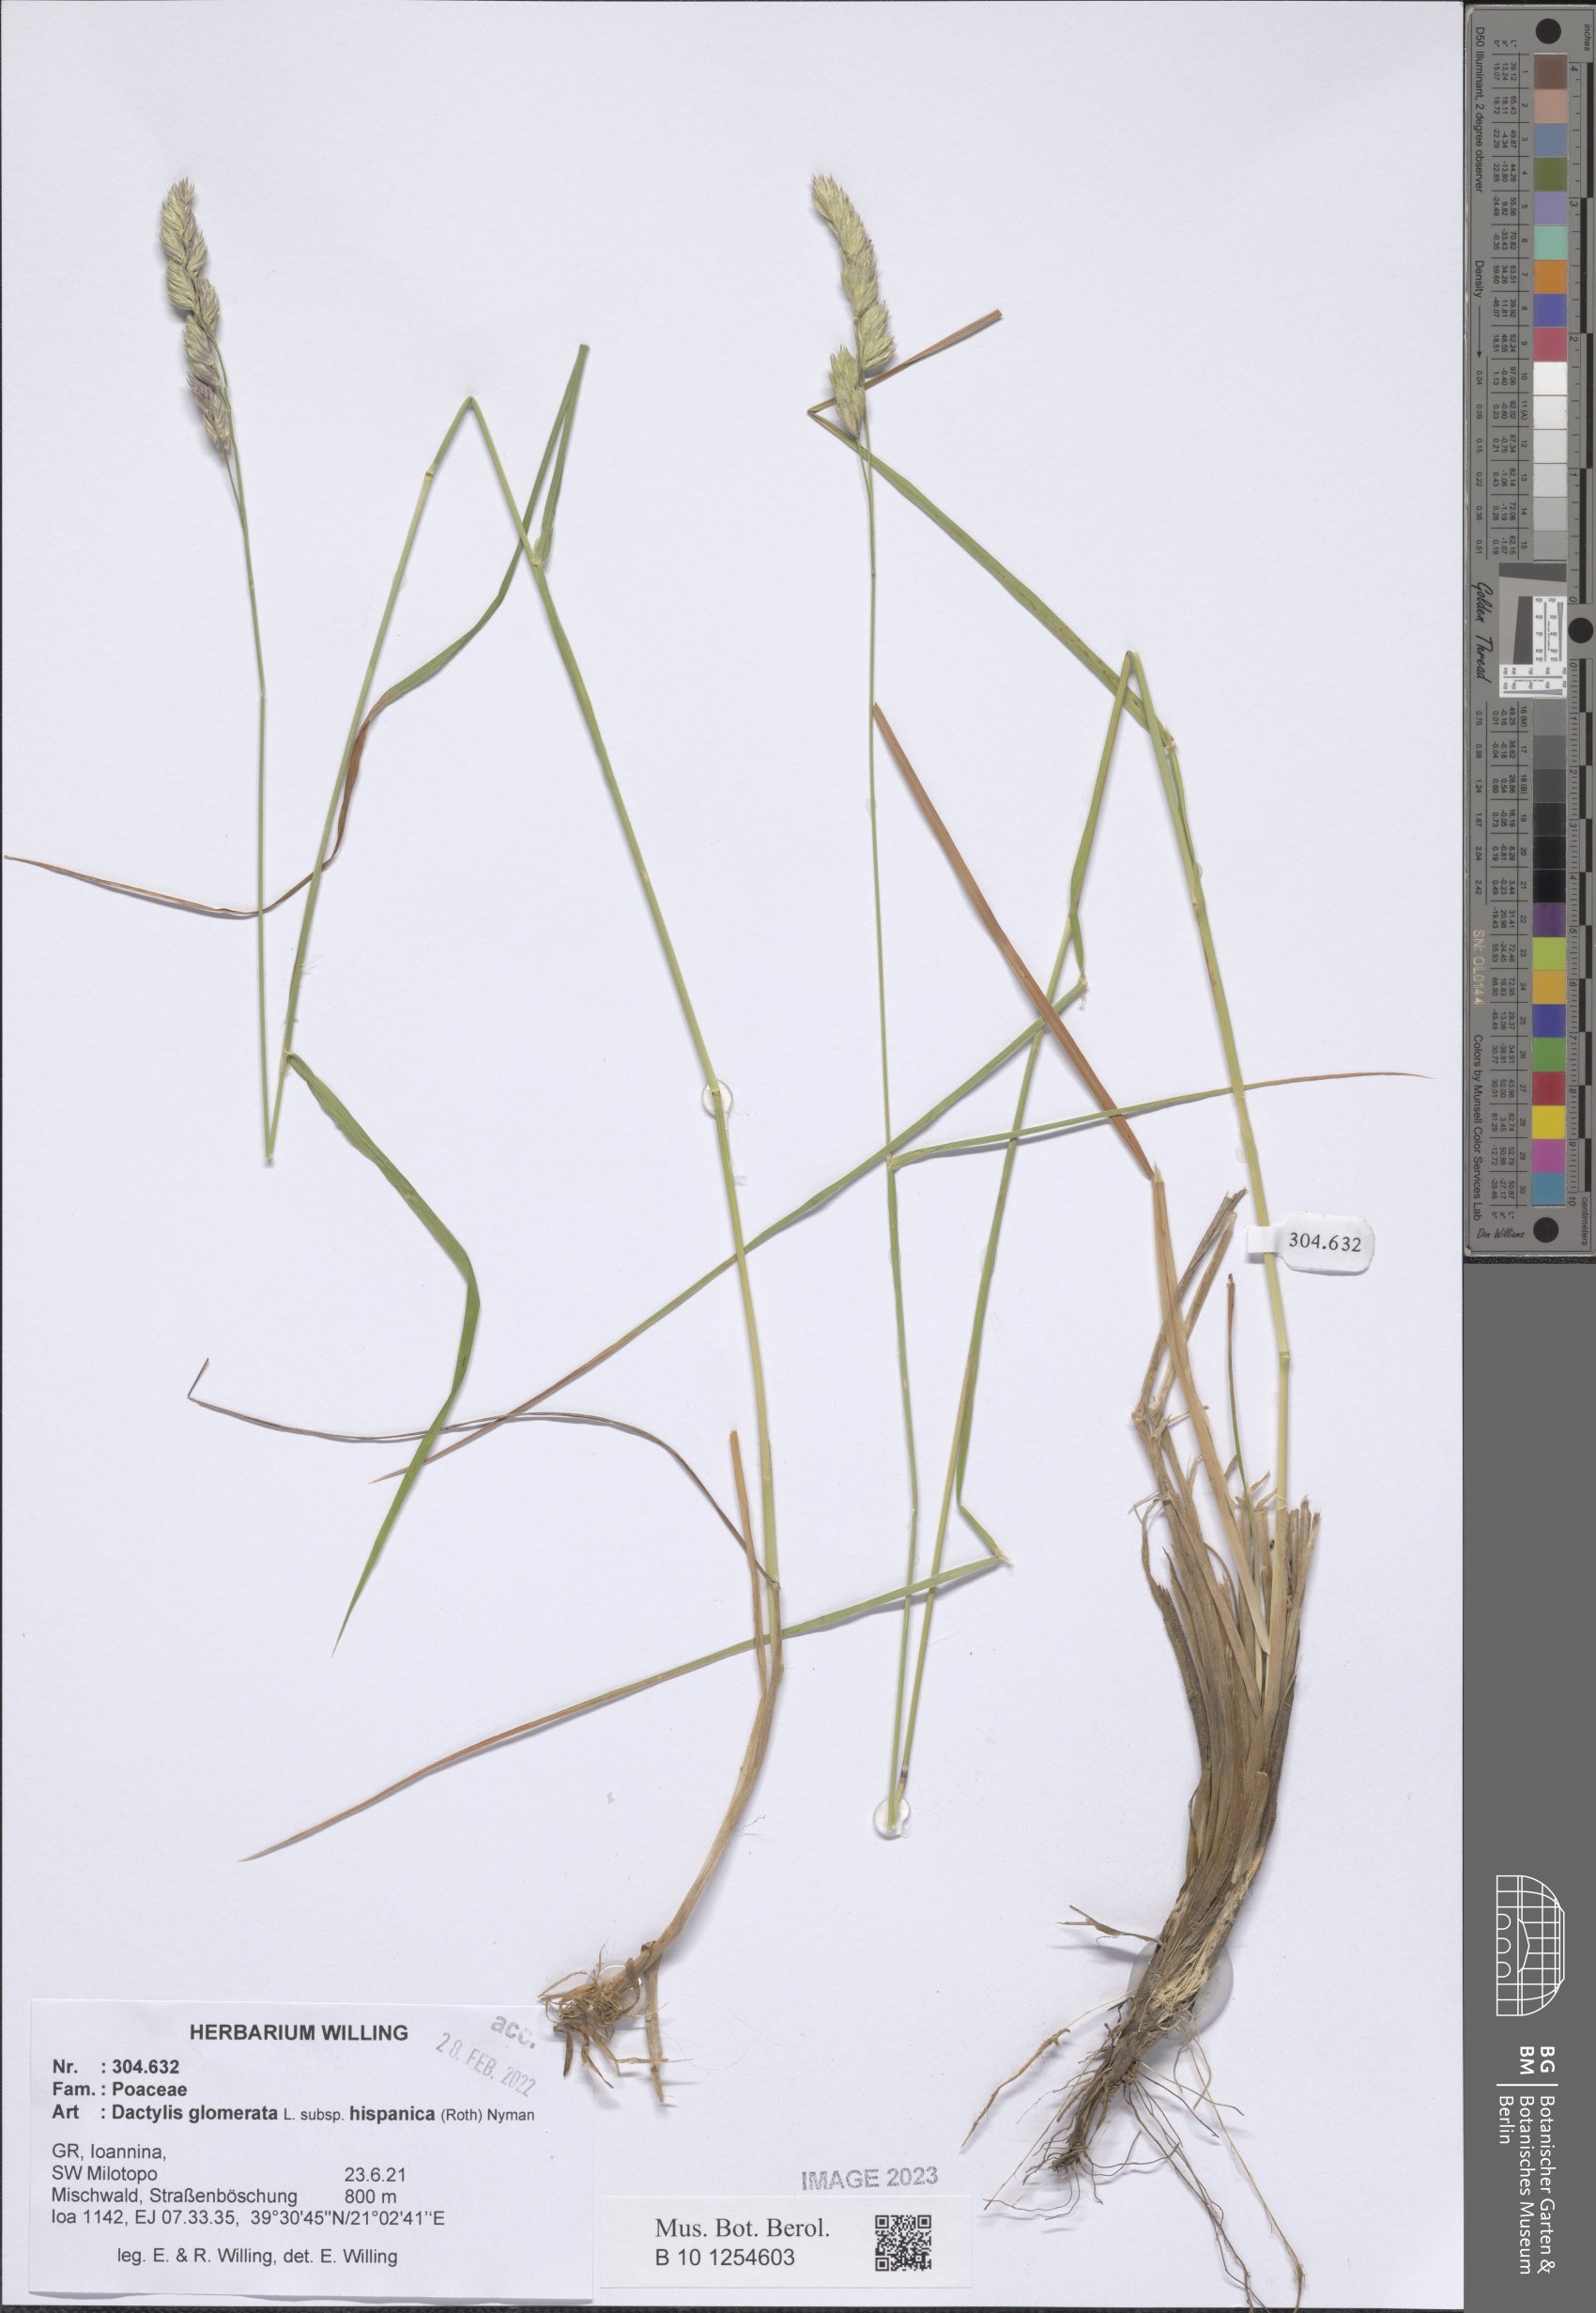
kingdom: Plantae
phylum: Tracheophyta
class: Liliopsida
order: Poales
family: Poaceae
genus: Dactylis
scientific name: Dactylis glomerata
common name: Orchardgrass
